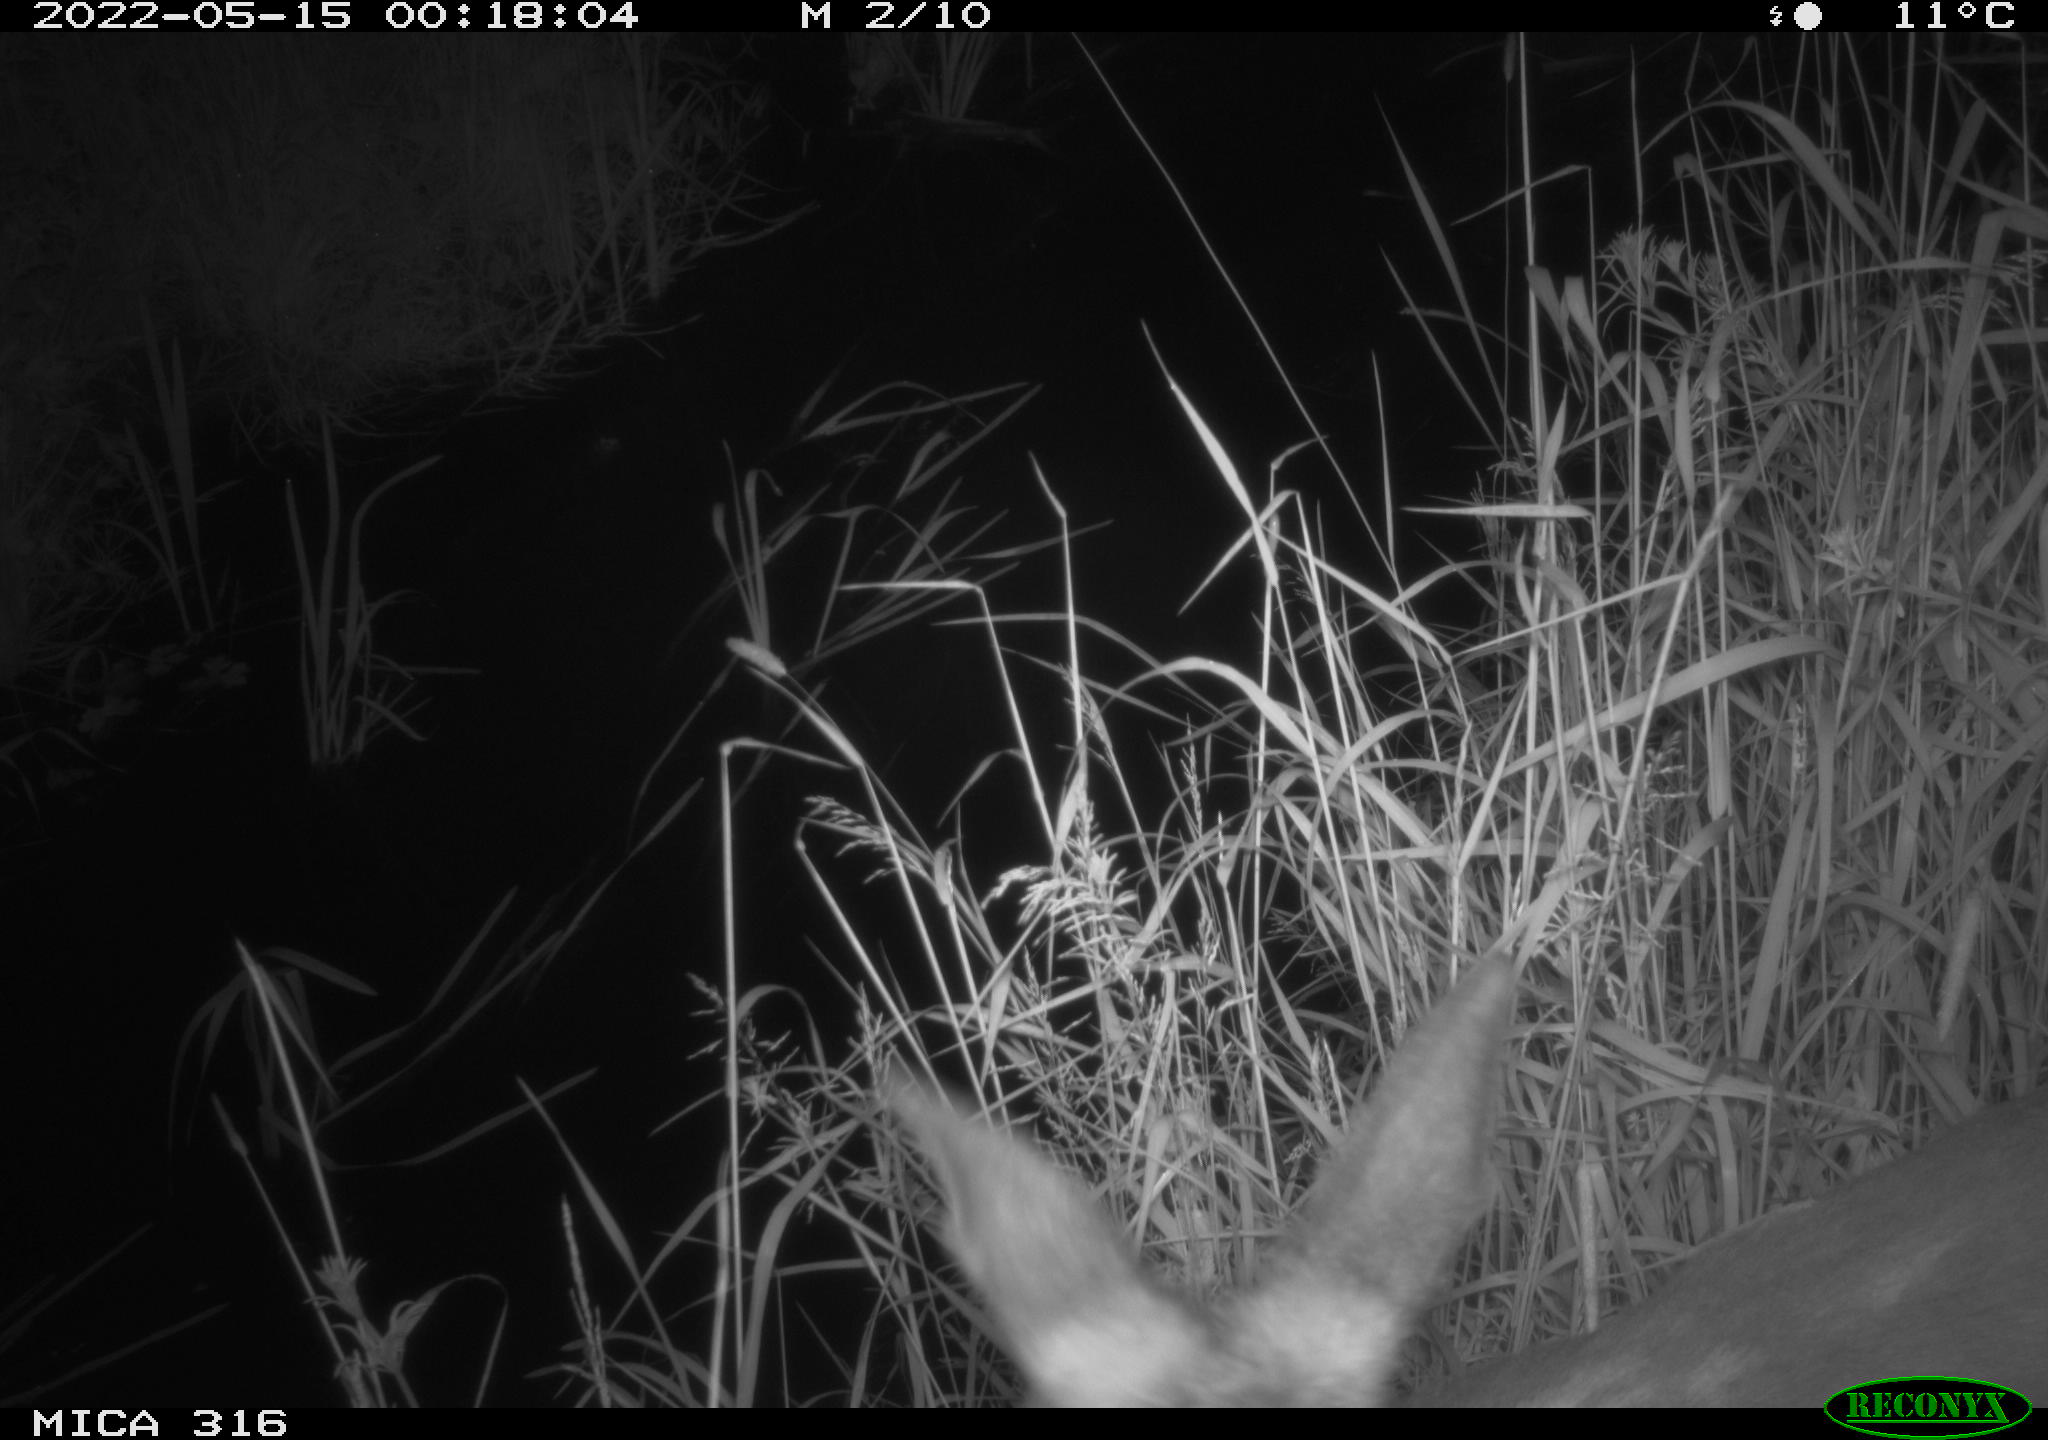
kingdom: Animalia
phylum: Chordata
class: Mammalia
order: Artiodactyla
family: Cervidae
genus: Capreolus
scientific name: Capreolus capreolus
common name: Western roe deer
